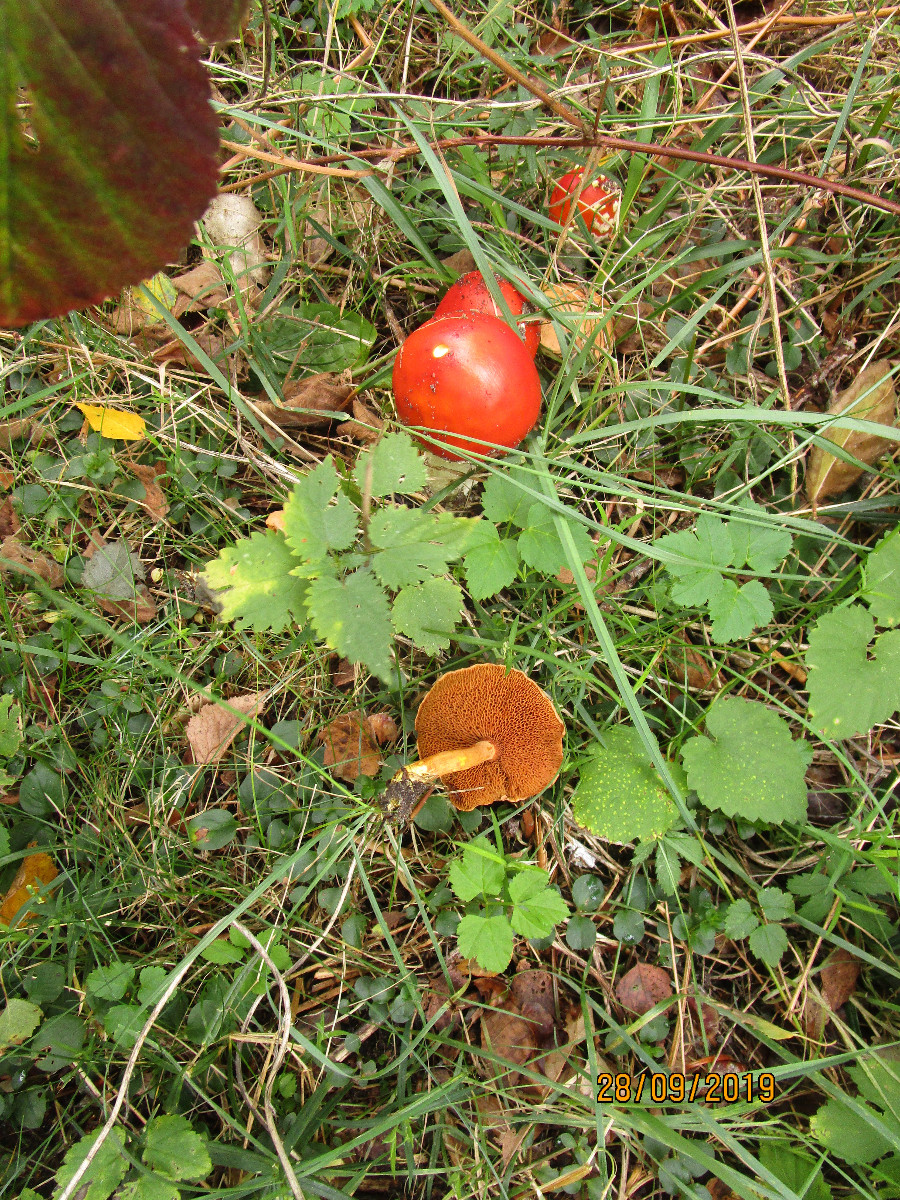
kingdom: Fungi
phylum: Basidiomycota
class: Agaricomycetes
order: Boletales
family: Boletaceae
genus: Chalciporus
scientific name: Chalciporus piperatus
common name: peberrørhat
